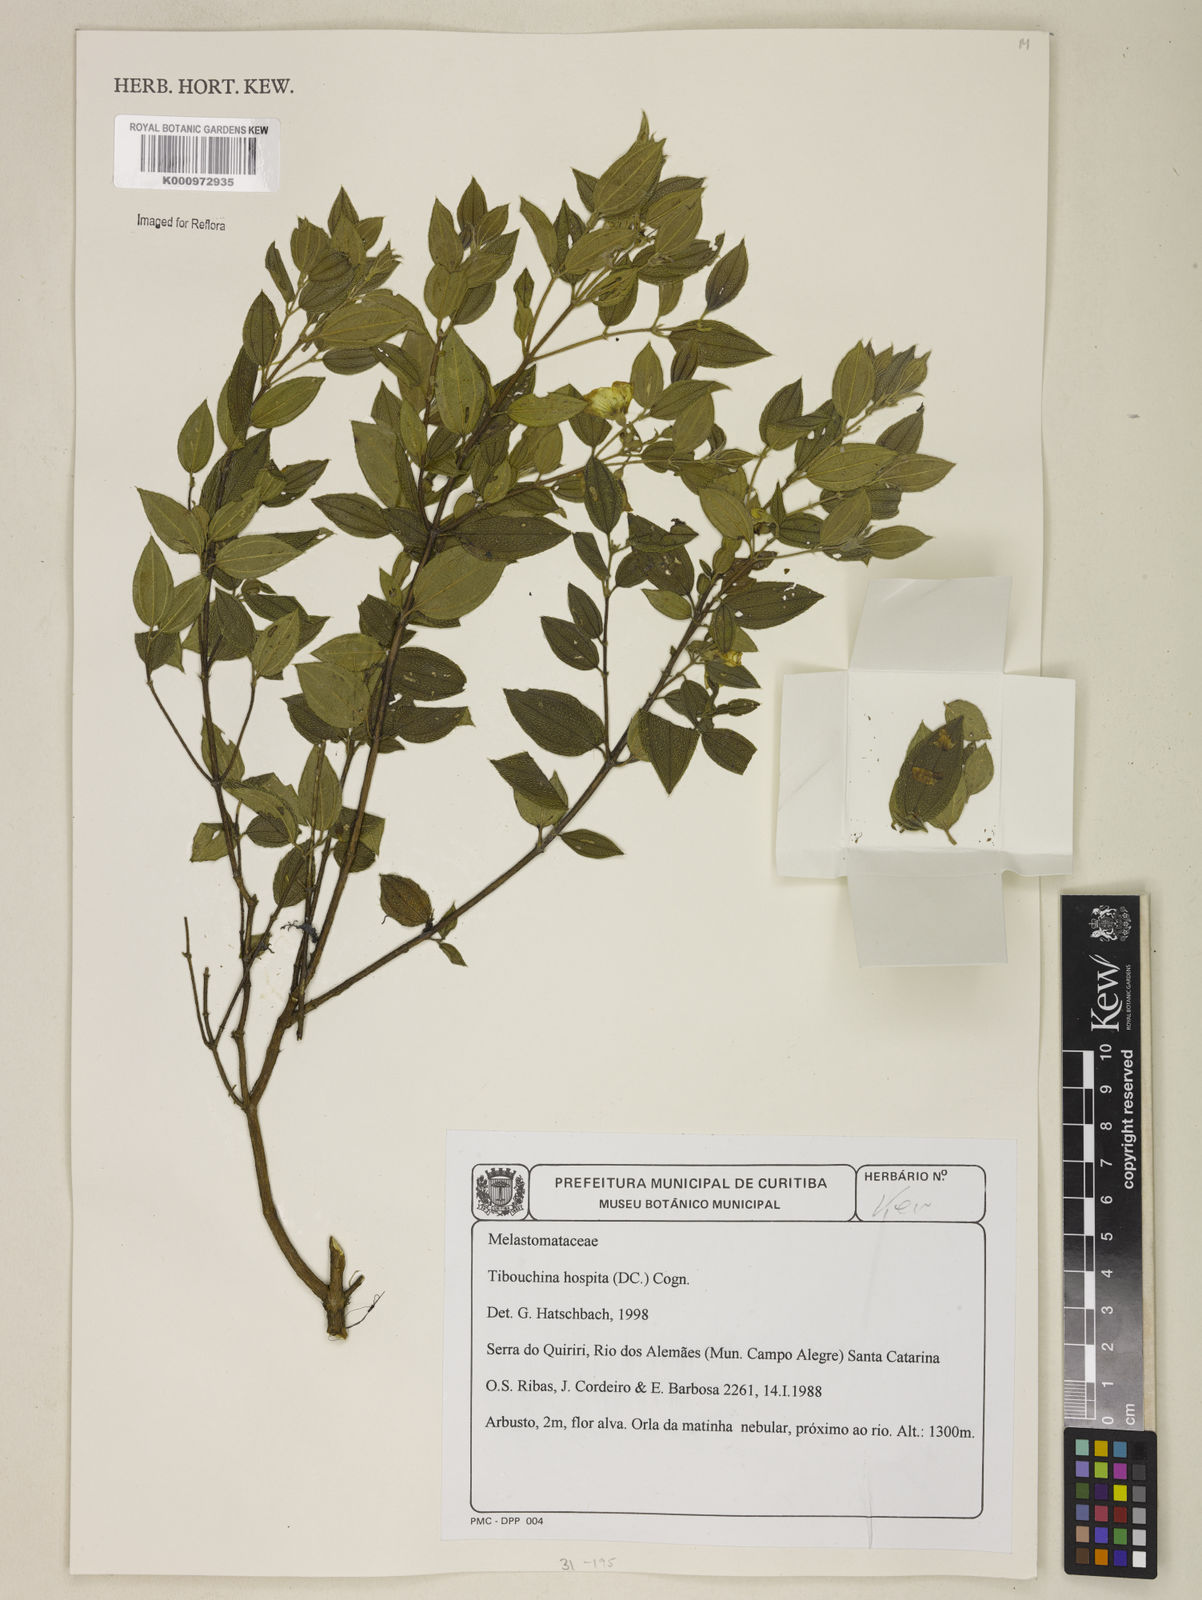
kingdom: Plantae
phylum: Tracheophyta
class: Magnoliopsida
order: Myrtales
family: Melastomataceae
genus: Pleroma
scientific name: Pleroma hospitum
